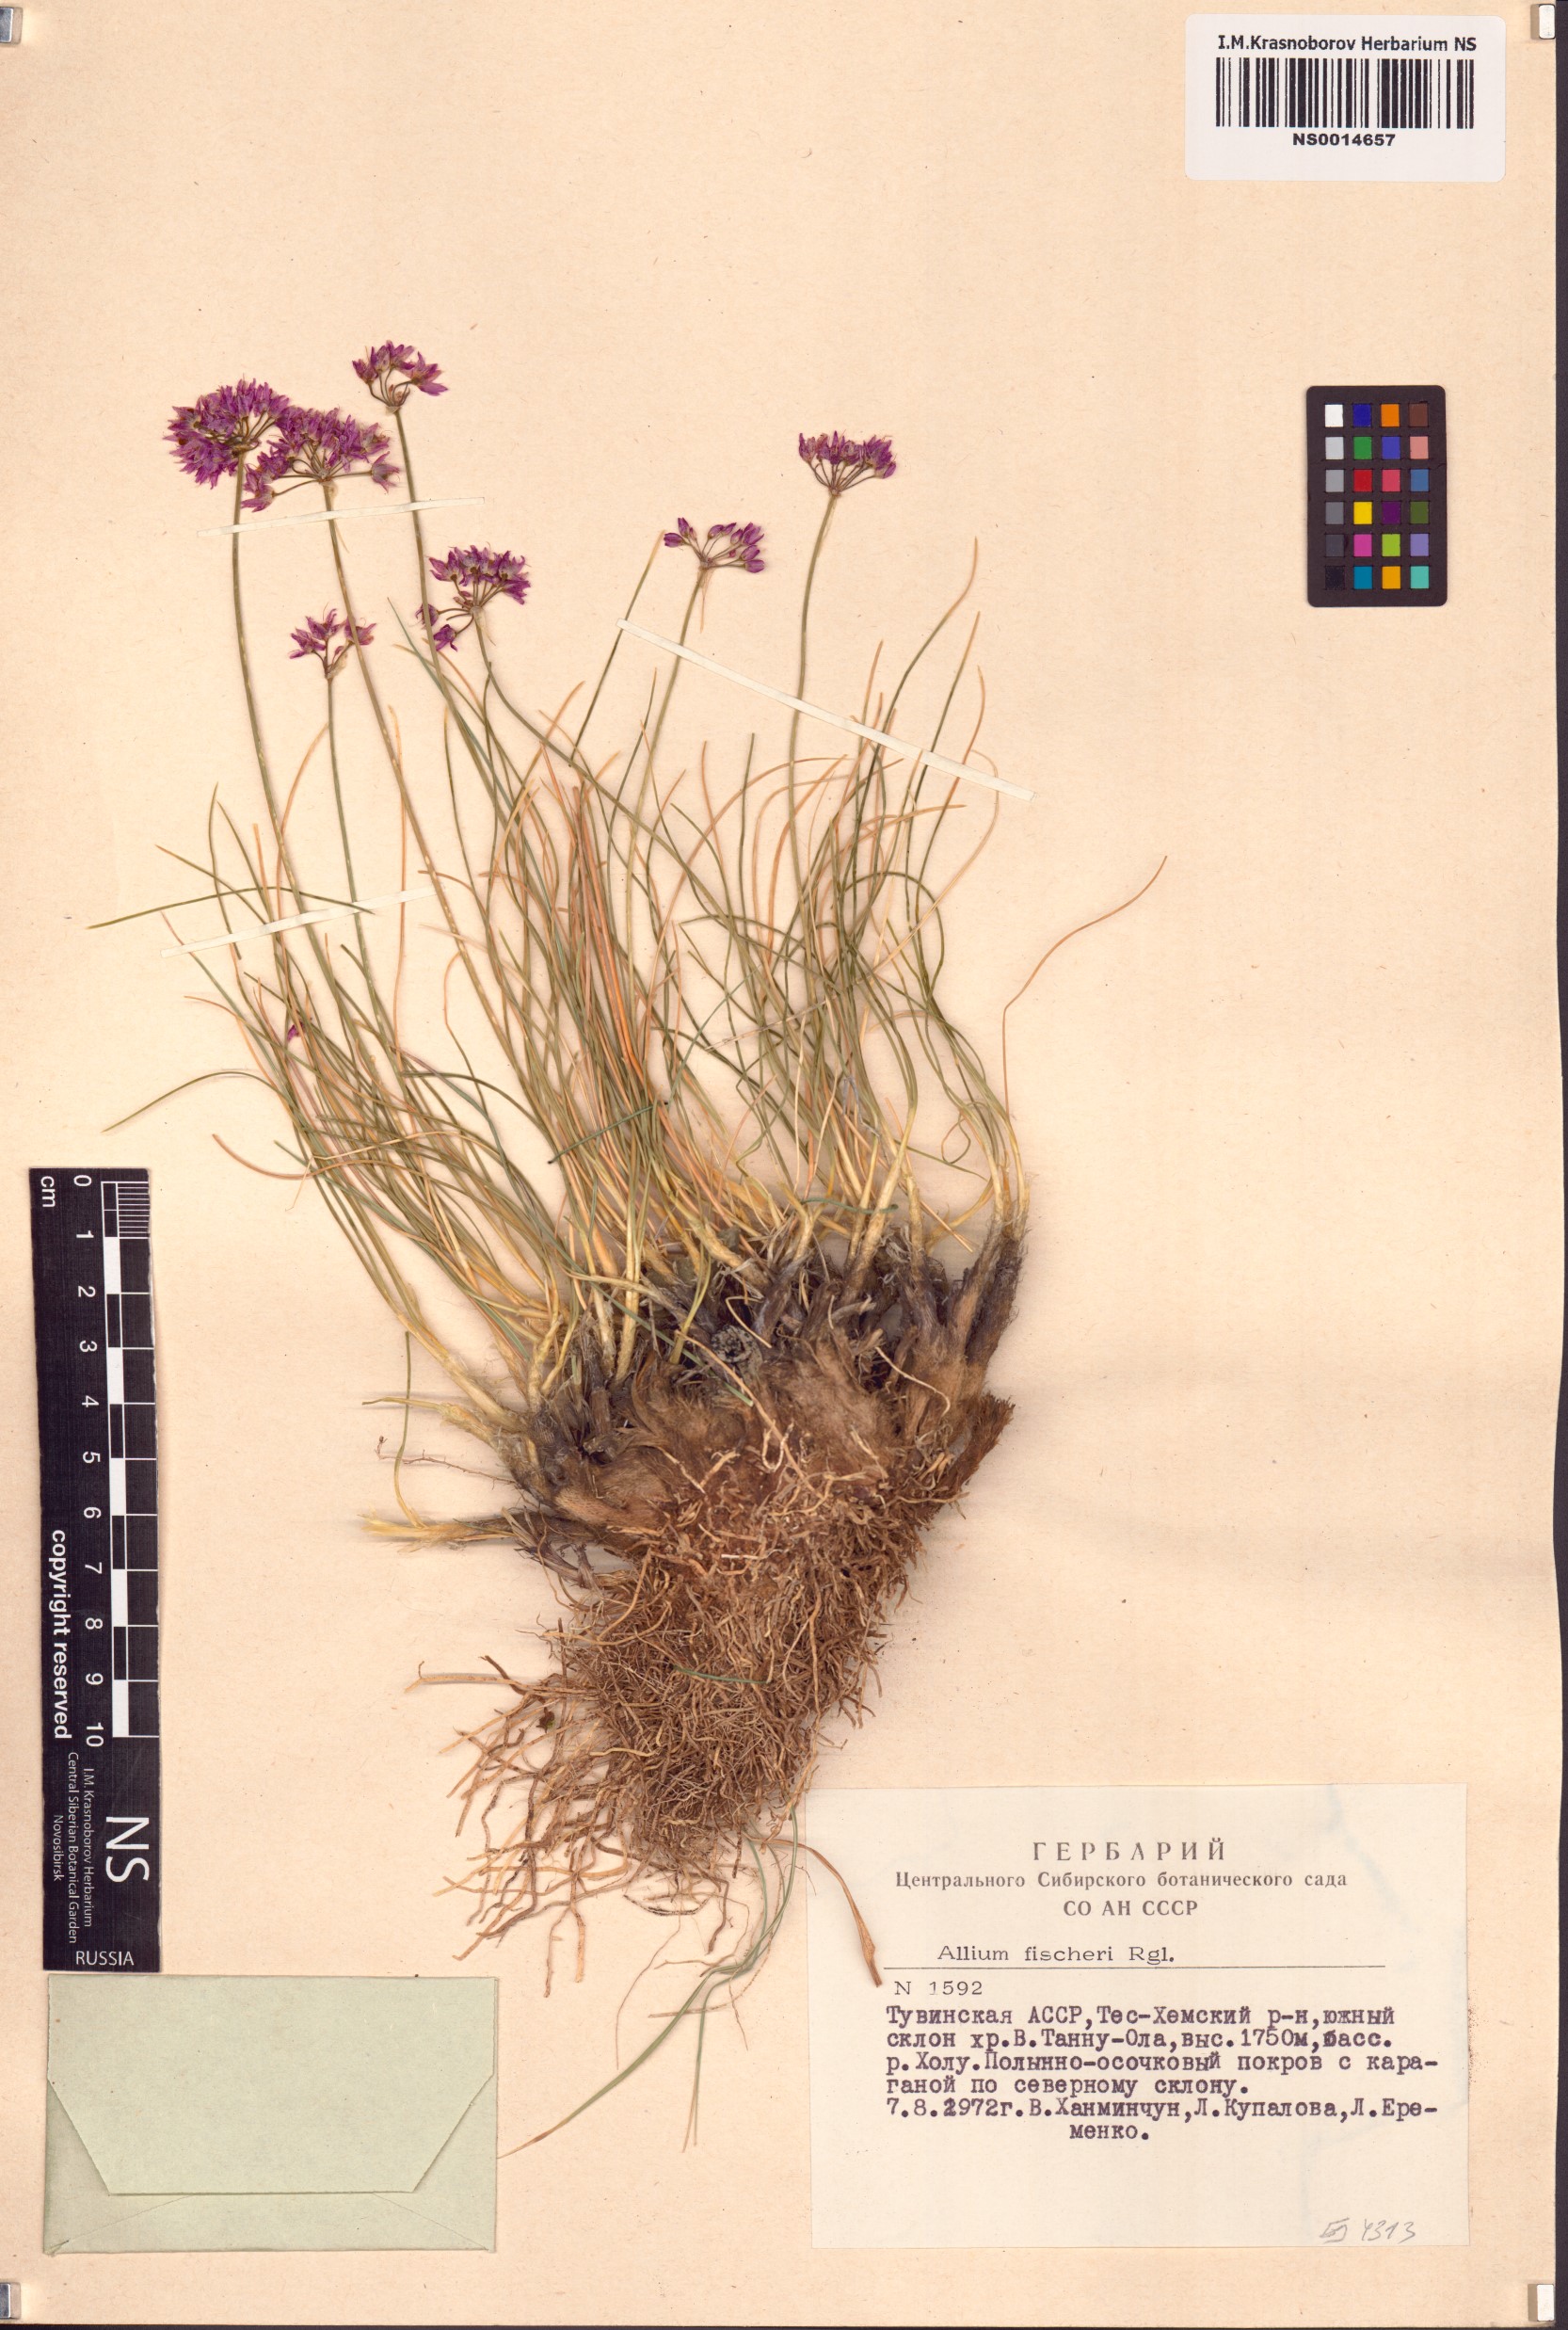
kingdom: Plantae
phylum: Tracheophyta
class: Liliopsida
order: Asparagales
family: Amaryllidaceae
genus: Allium
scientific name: Allium eduardi
